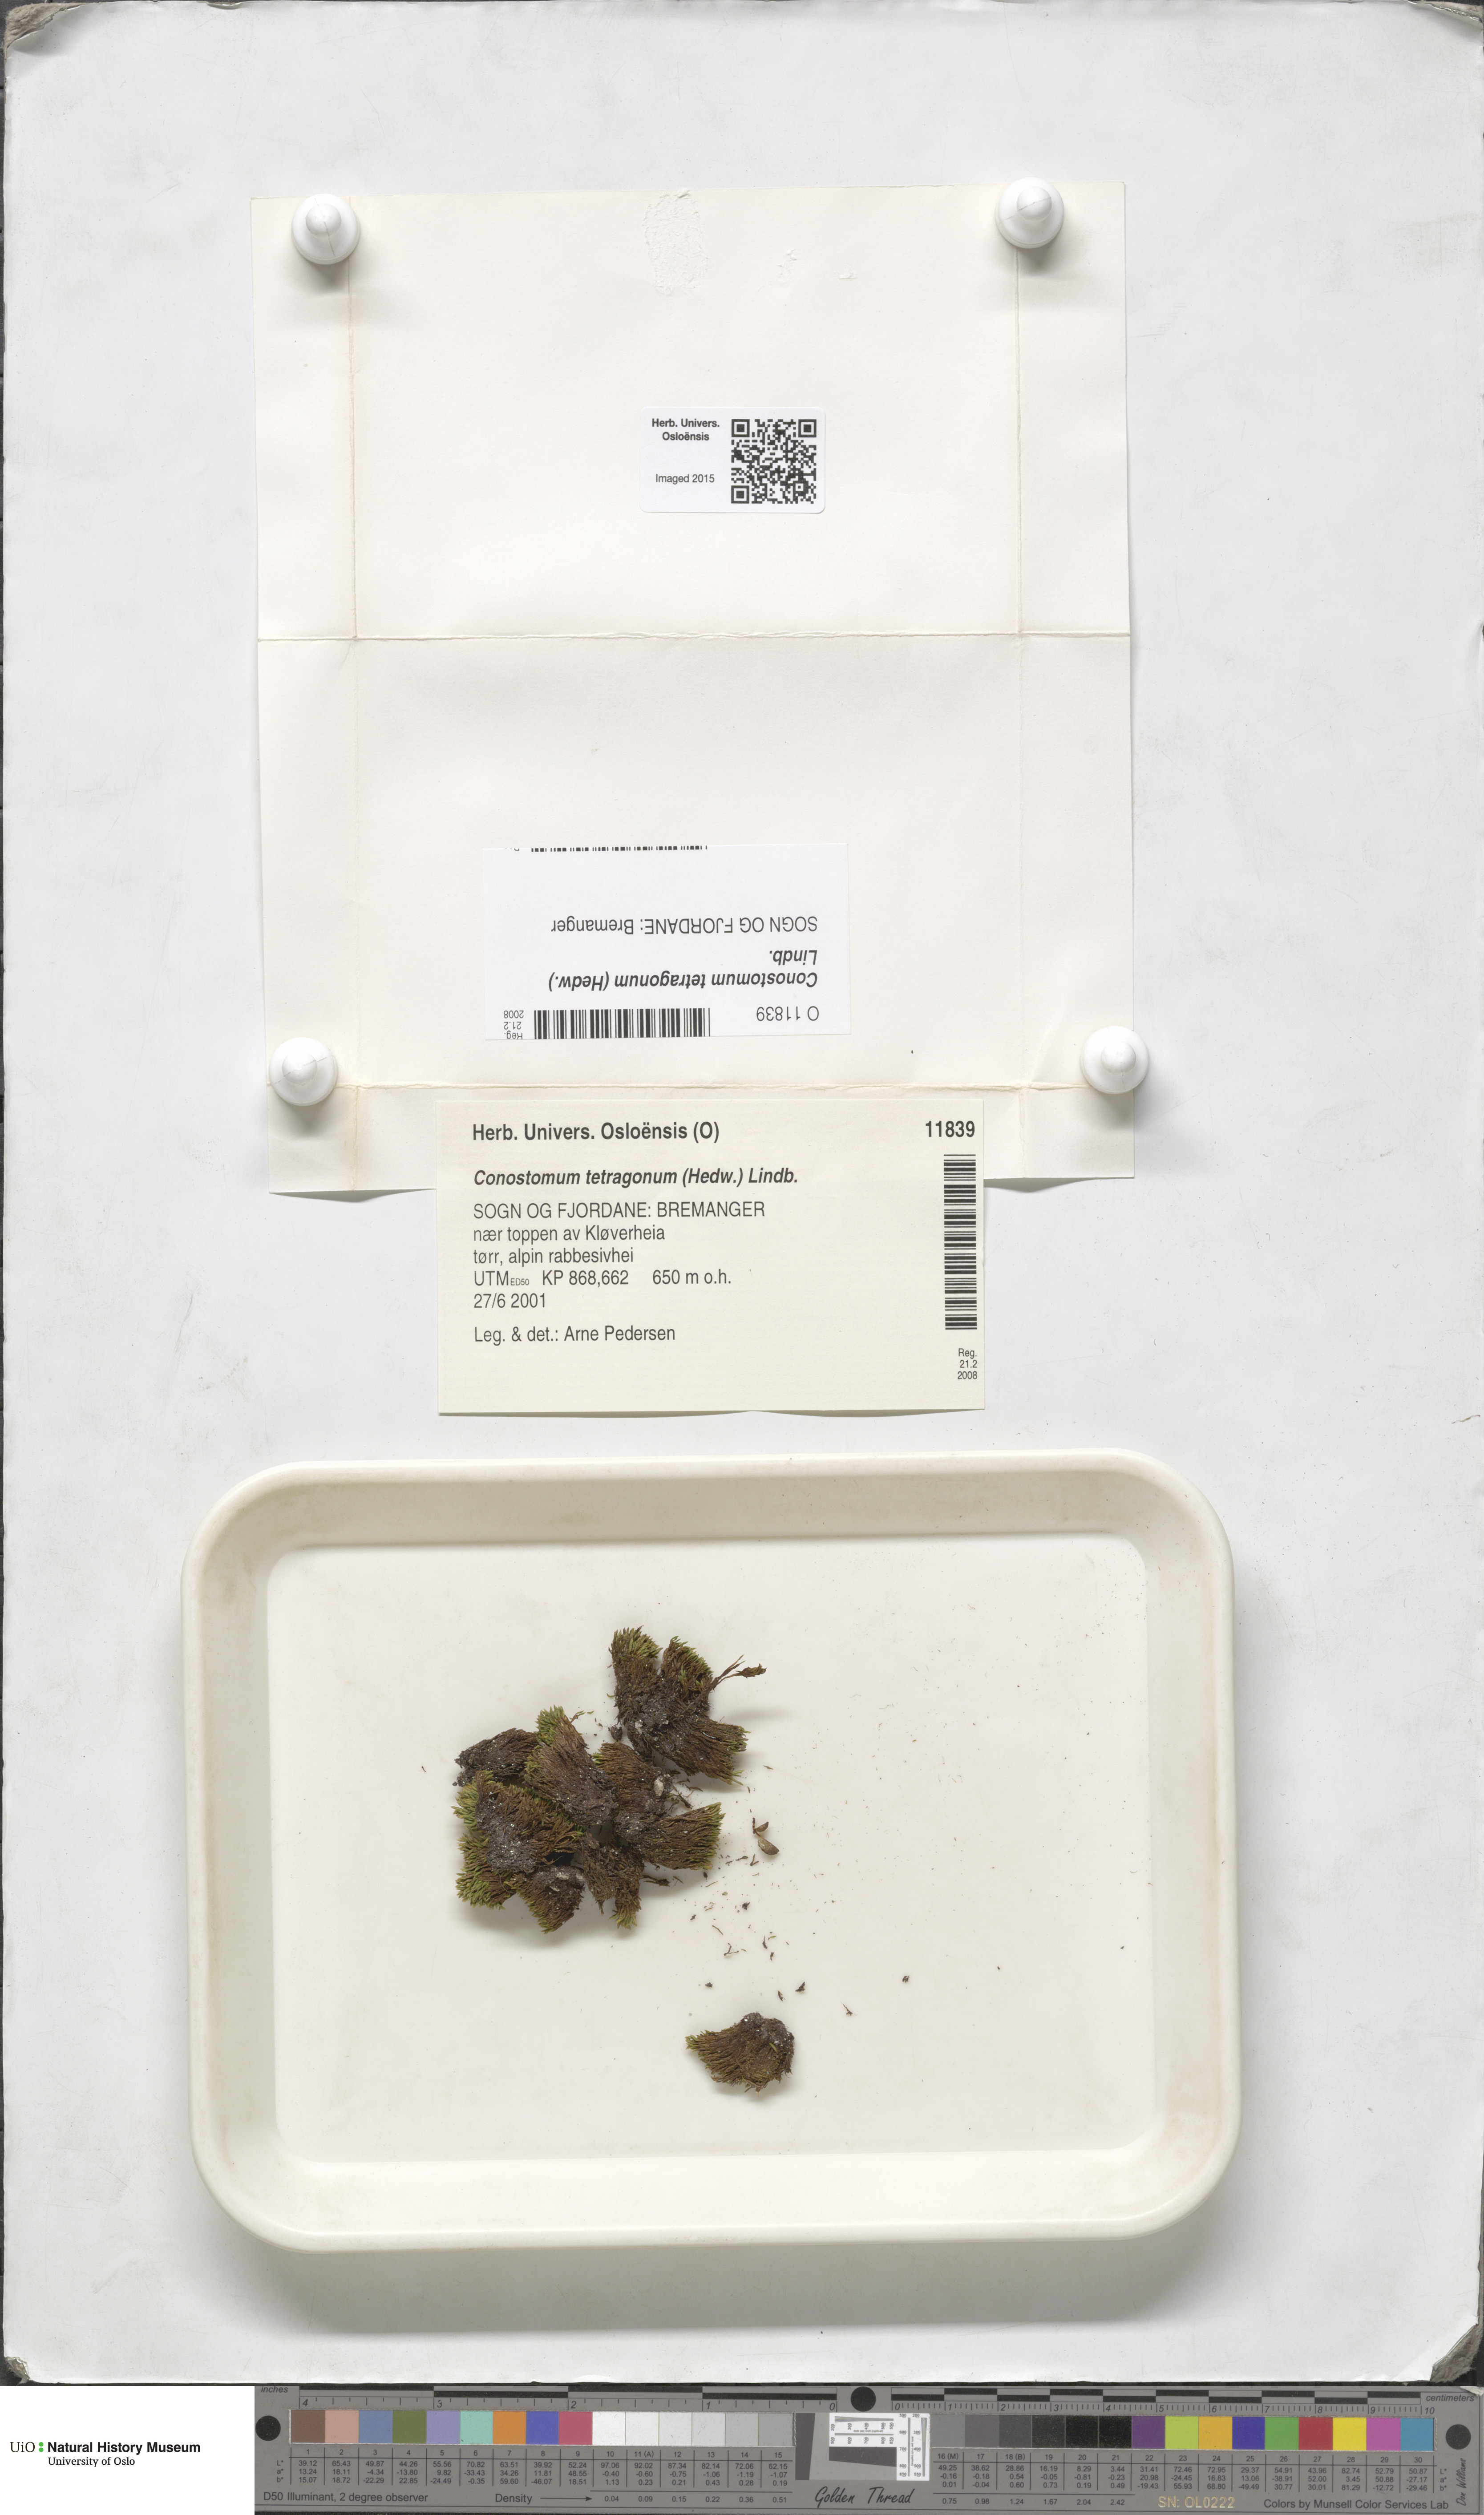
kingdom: Plantae
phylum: Bryophyta
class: Bryopsida
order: Bartramiales
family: Bartramiaceae
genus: Conostomum
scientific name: Conostomum tetragonum
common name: Helmet moss
